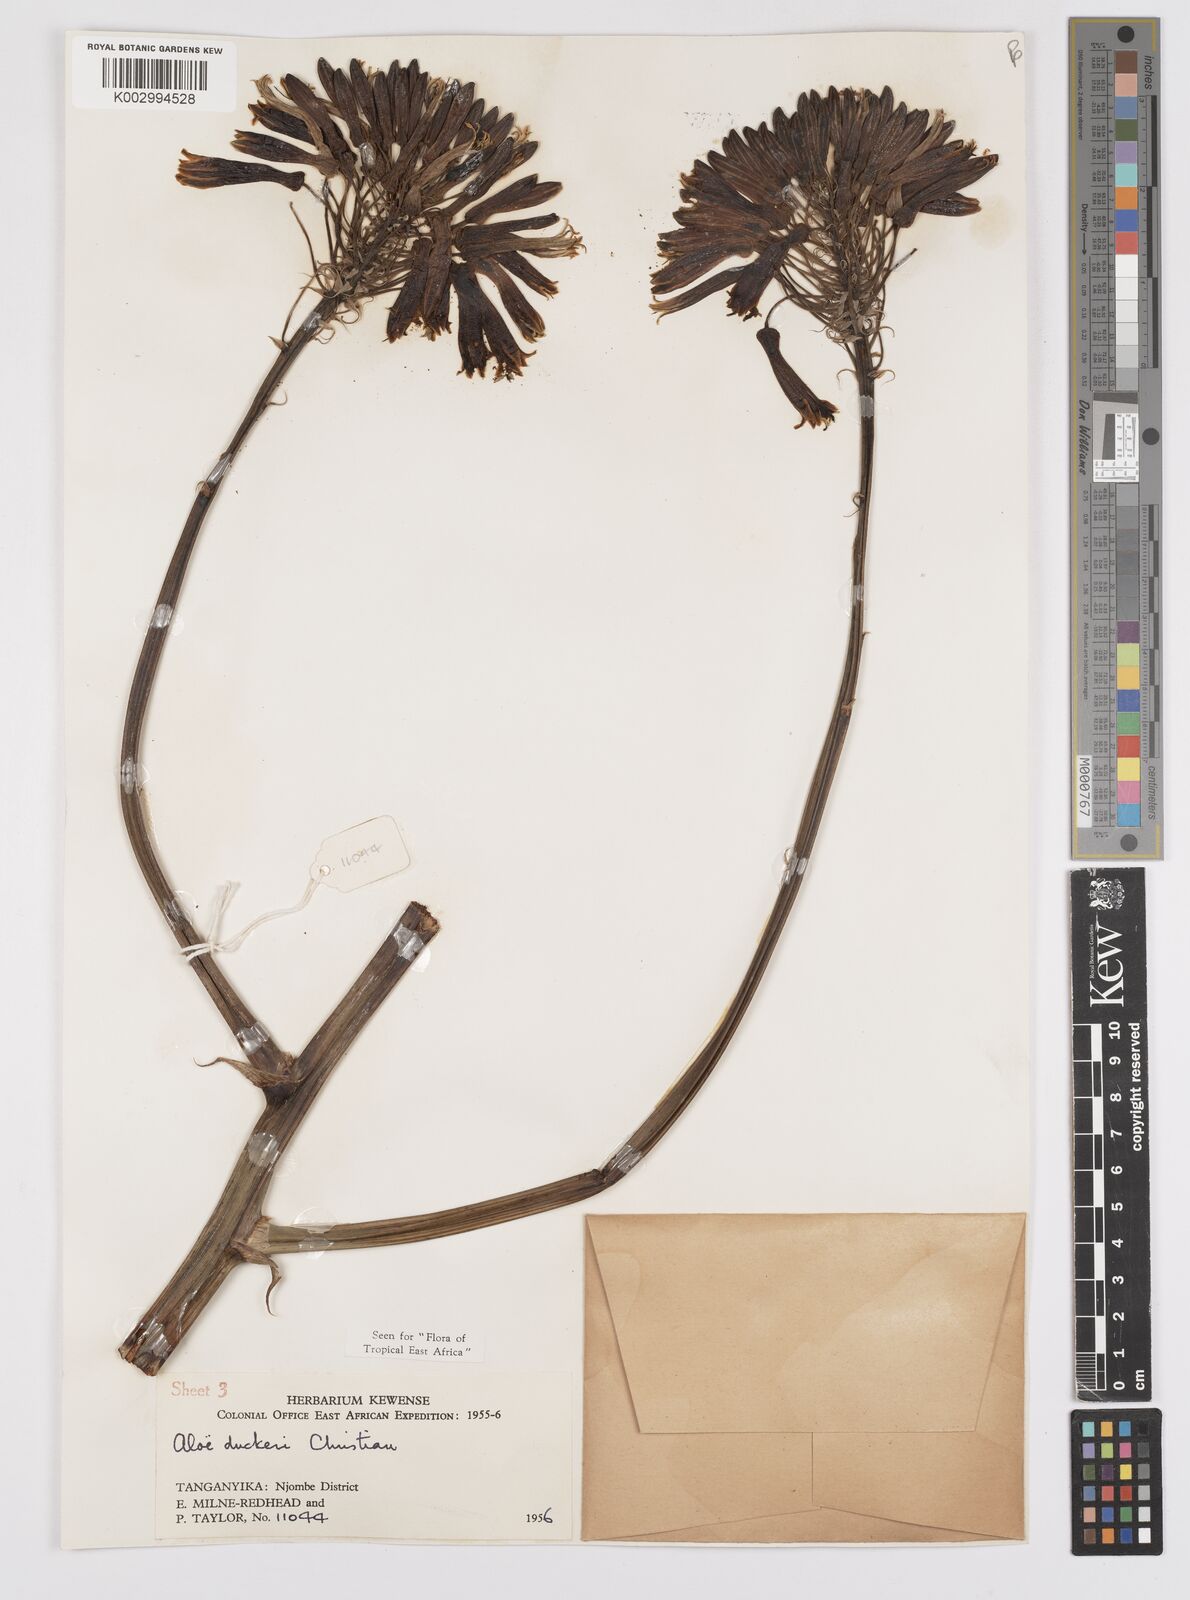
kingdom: Plantae
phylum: Tracheophyta
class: Liliopsida
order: Asparagales
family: Asphodelaceae
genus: Aloe
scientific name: Aloe duckeri
